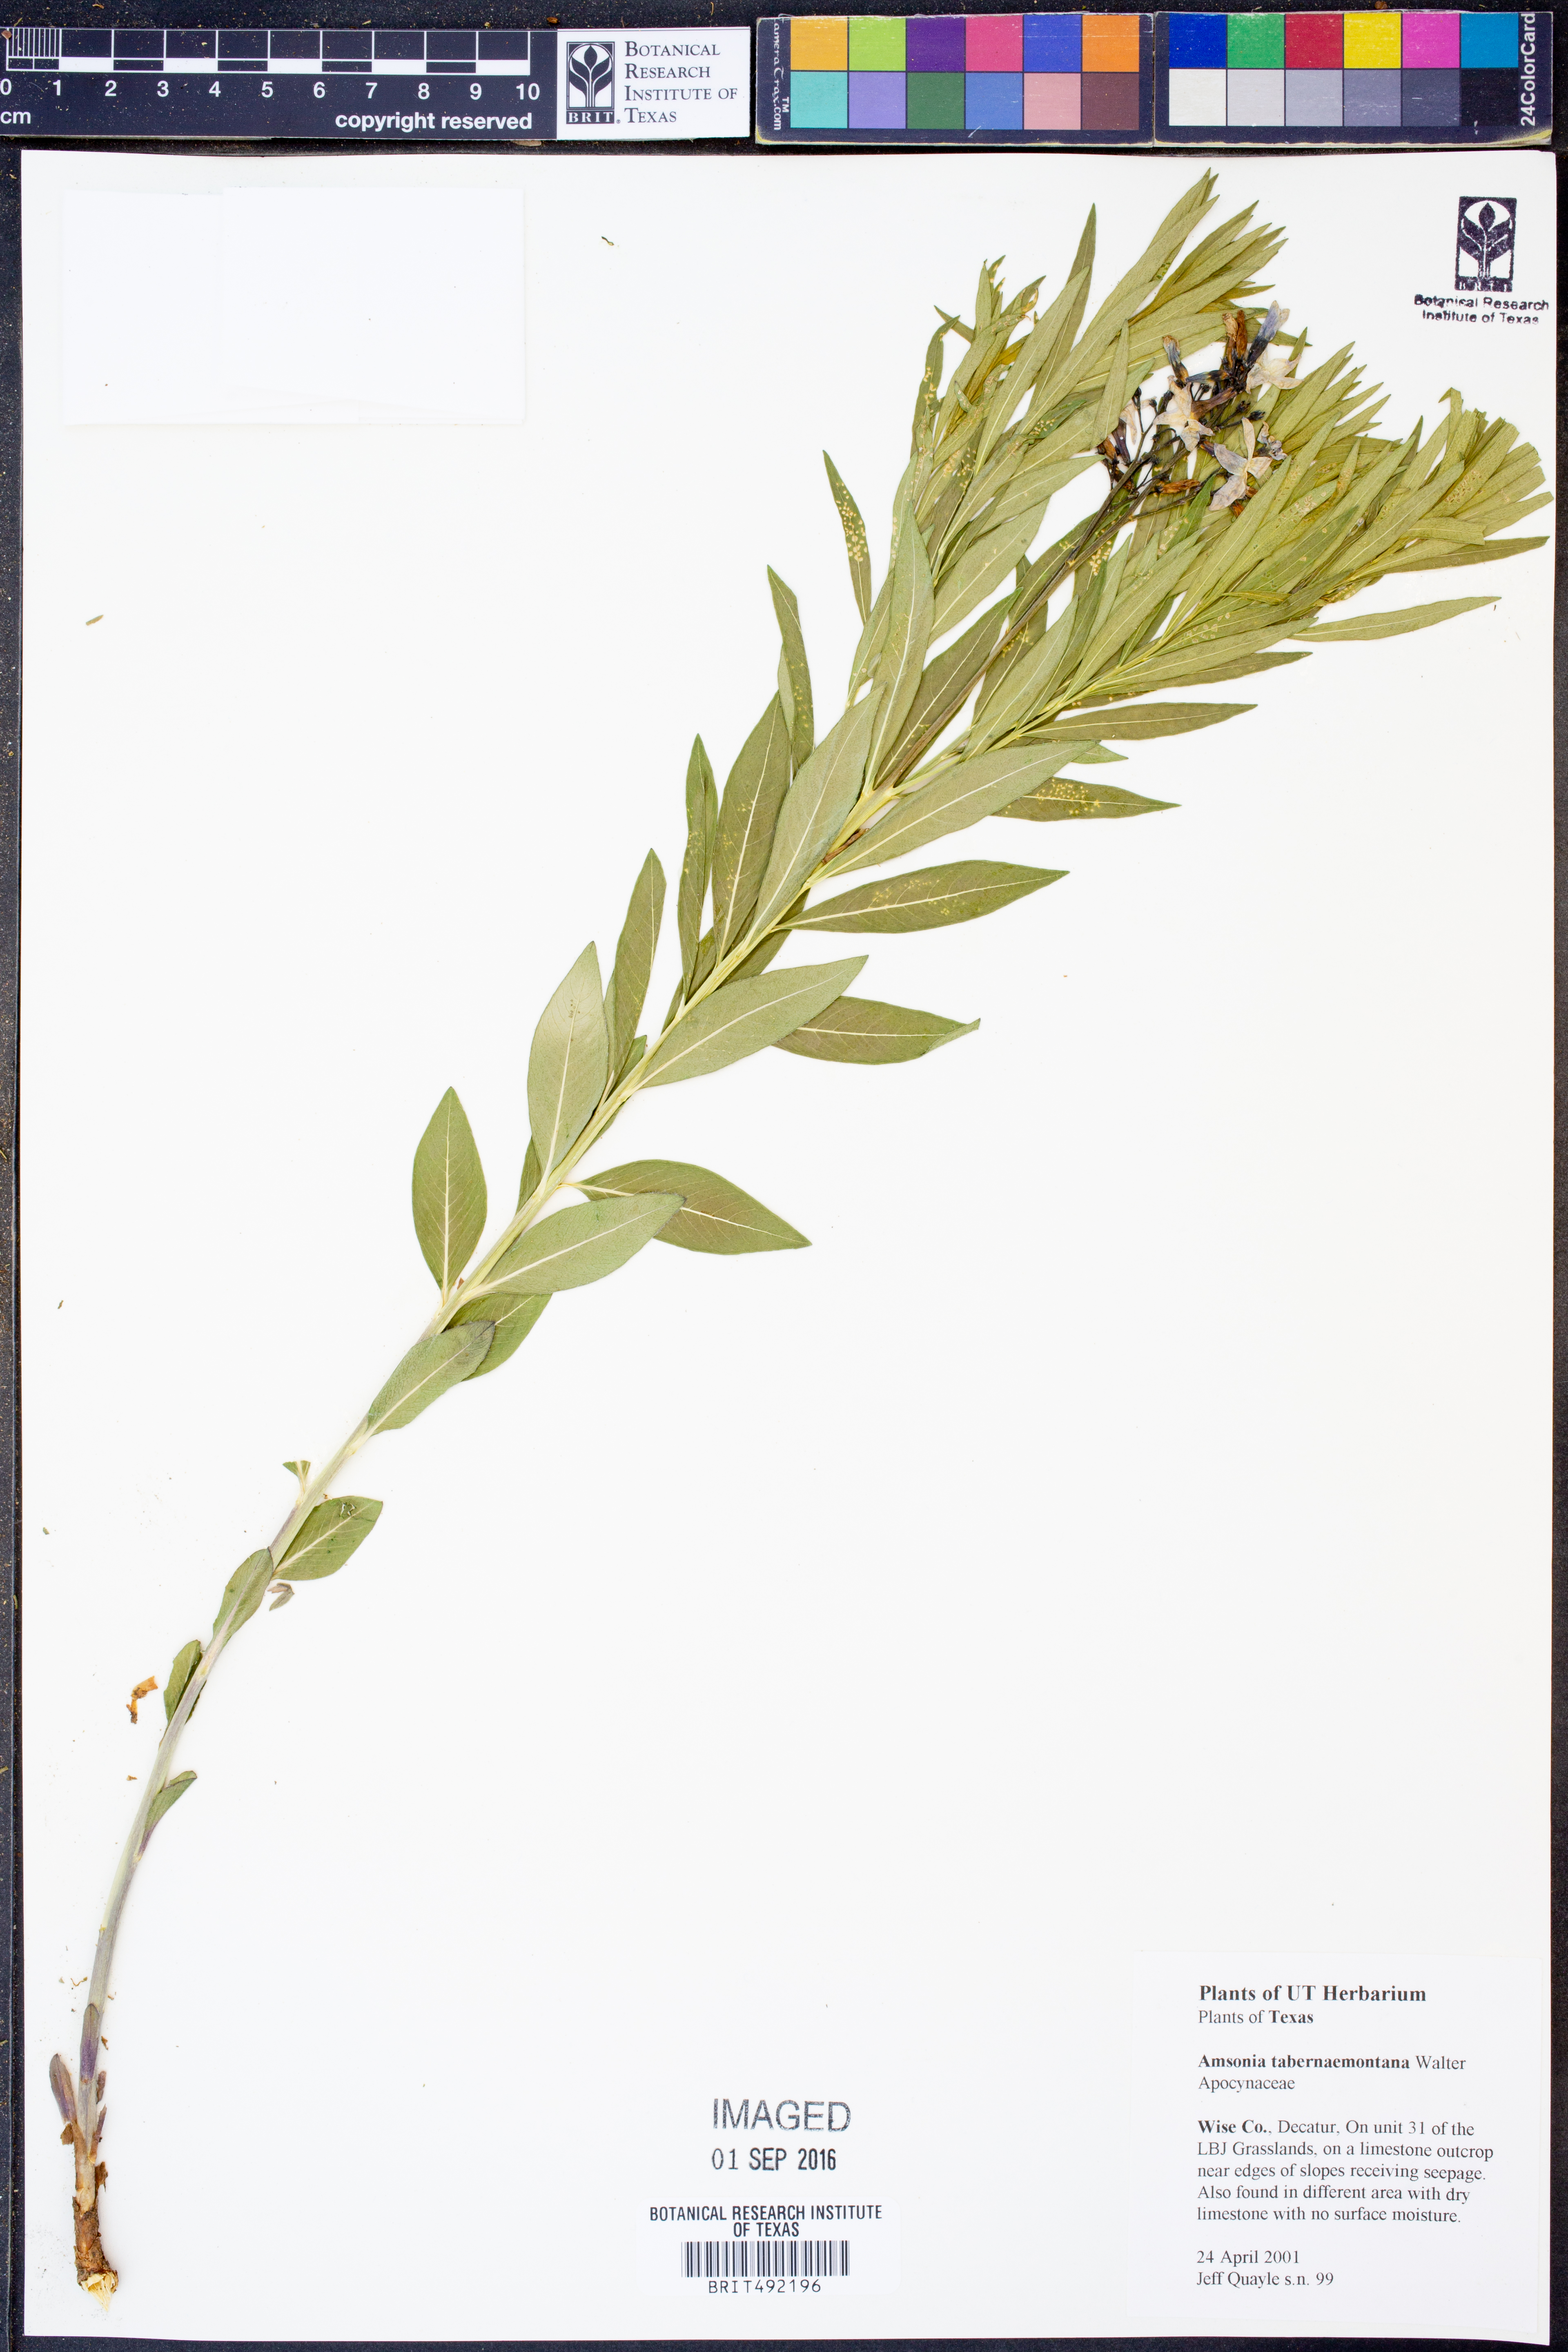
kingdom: Plantae
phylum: Tracheophyta
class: Magnoliopsida
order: Gentianales
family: Apocynaceae
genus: Amsonia
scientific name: Amsonia tabernaemontana
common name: Texas-star
